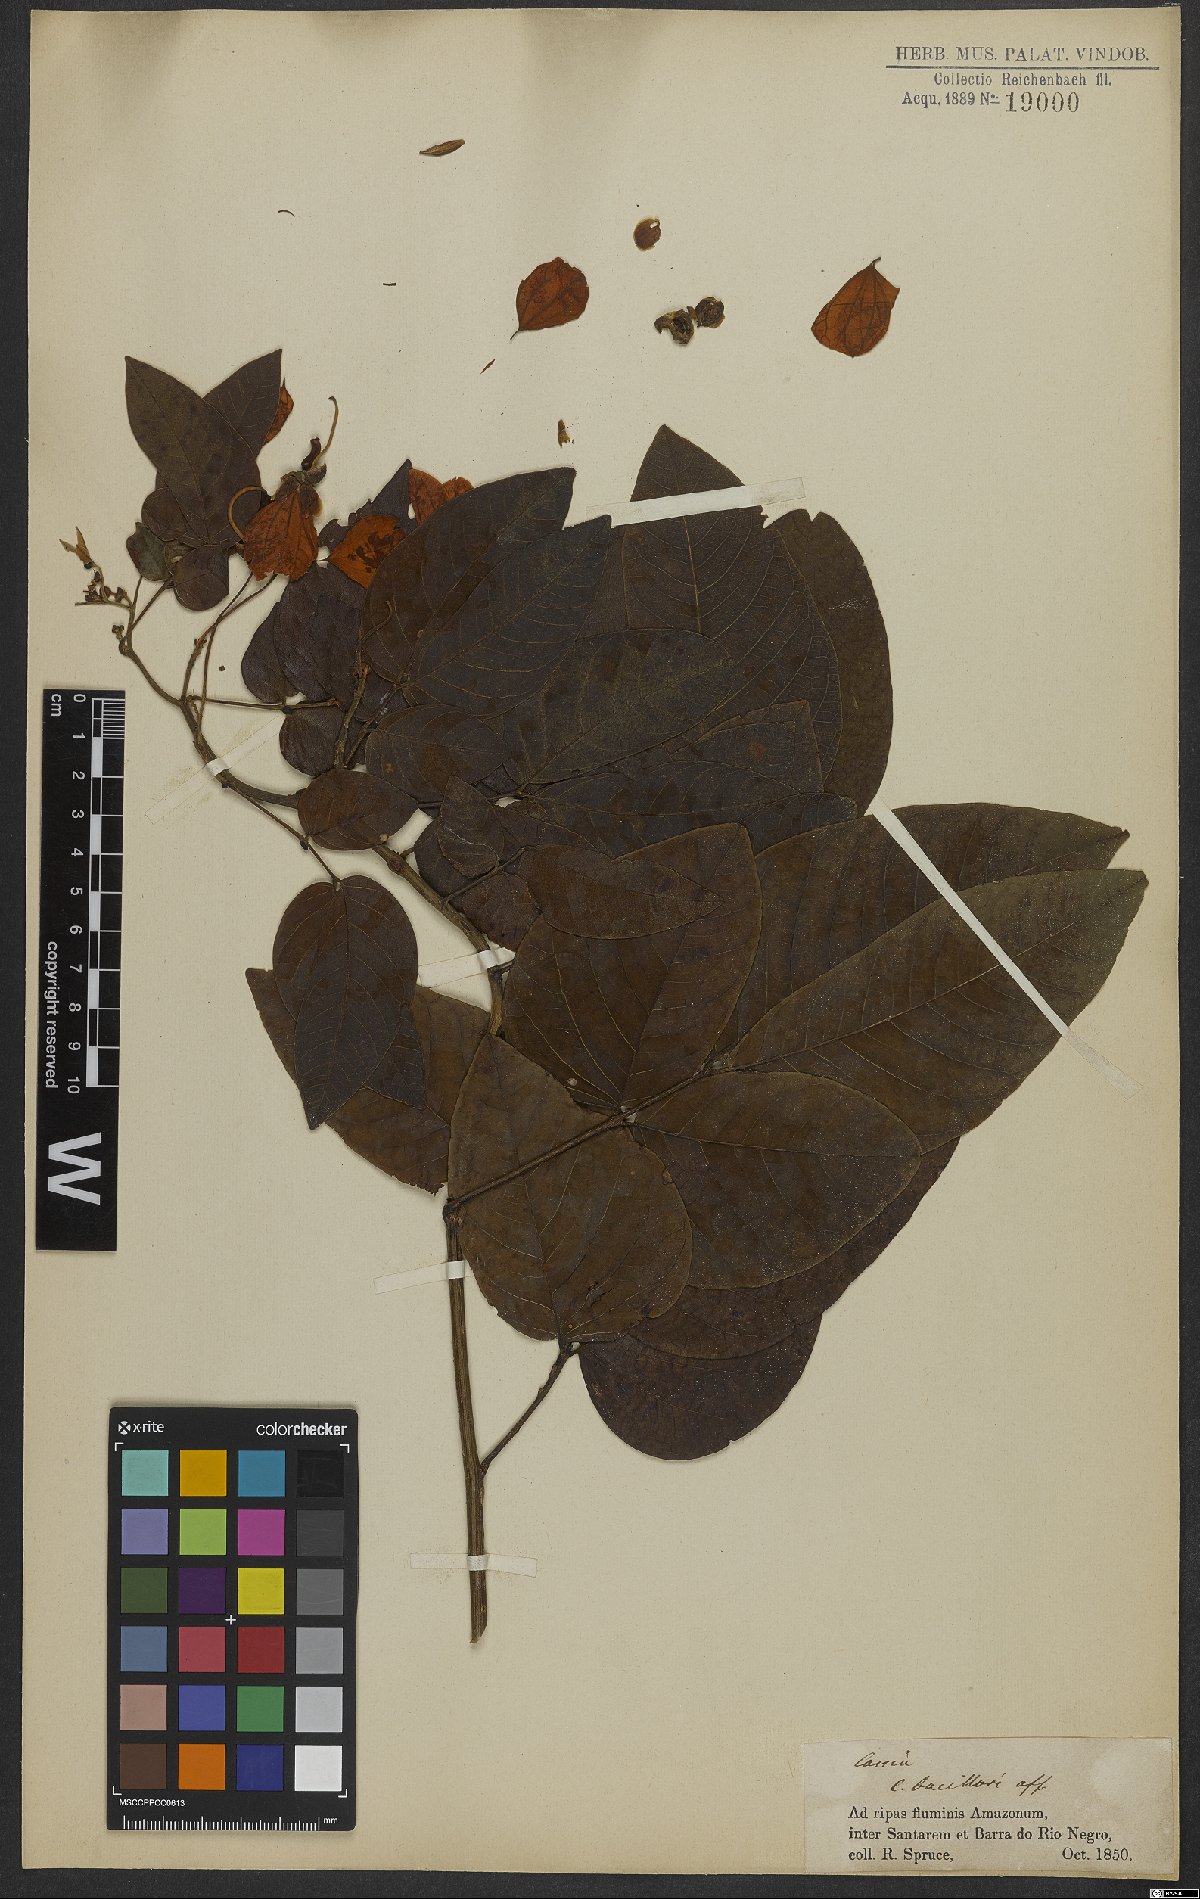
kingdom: Plantae
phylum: Tracheophyta
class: Magnoliopsida
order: Fabales
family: Fabaceae
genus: Senna
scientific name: Senna bacillaris
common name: West indian showertree
